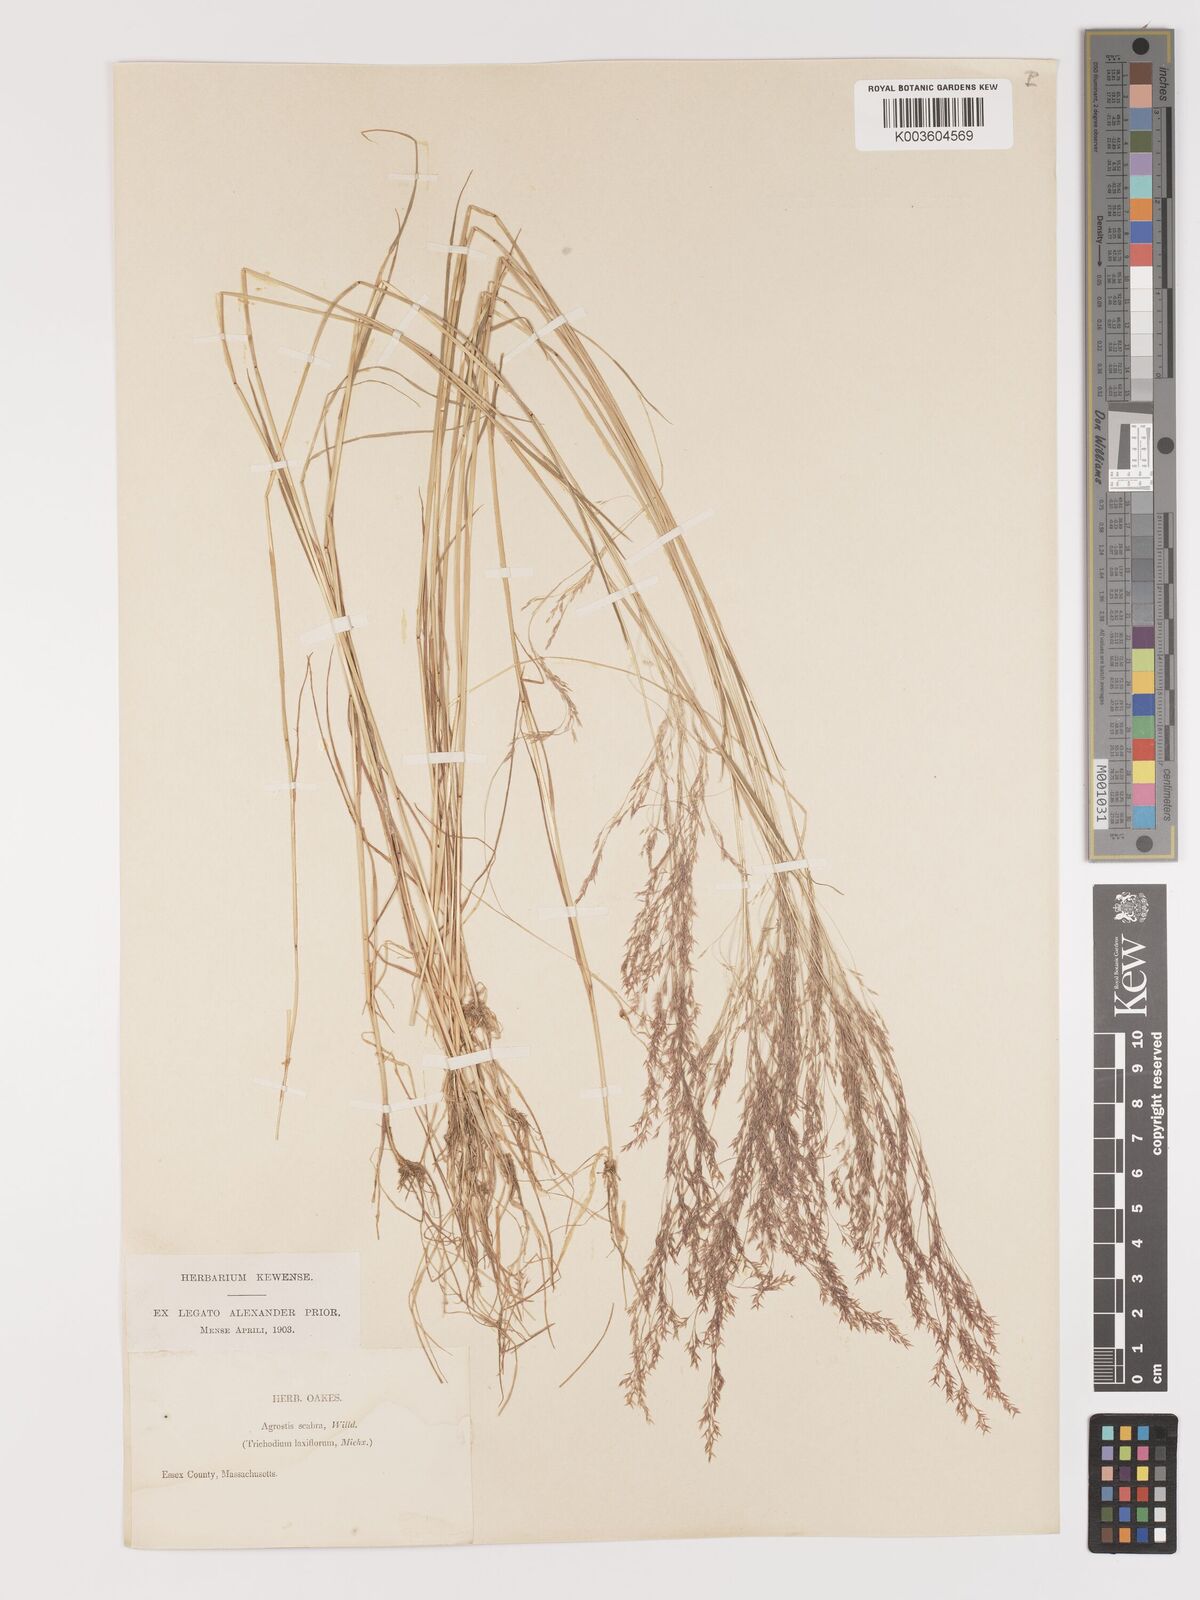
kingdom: Plantae
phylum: Tracheophyta
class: Liliopsida
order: Poales
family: Poaceae
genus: Agrostis
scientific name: Agrostis hyemalis
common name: Small bent
